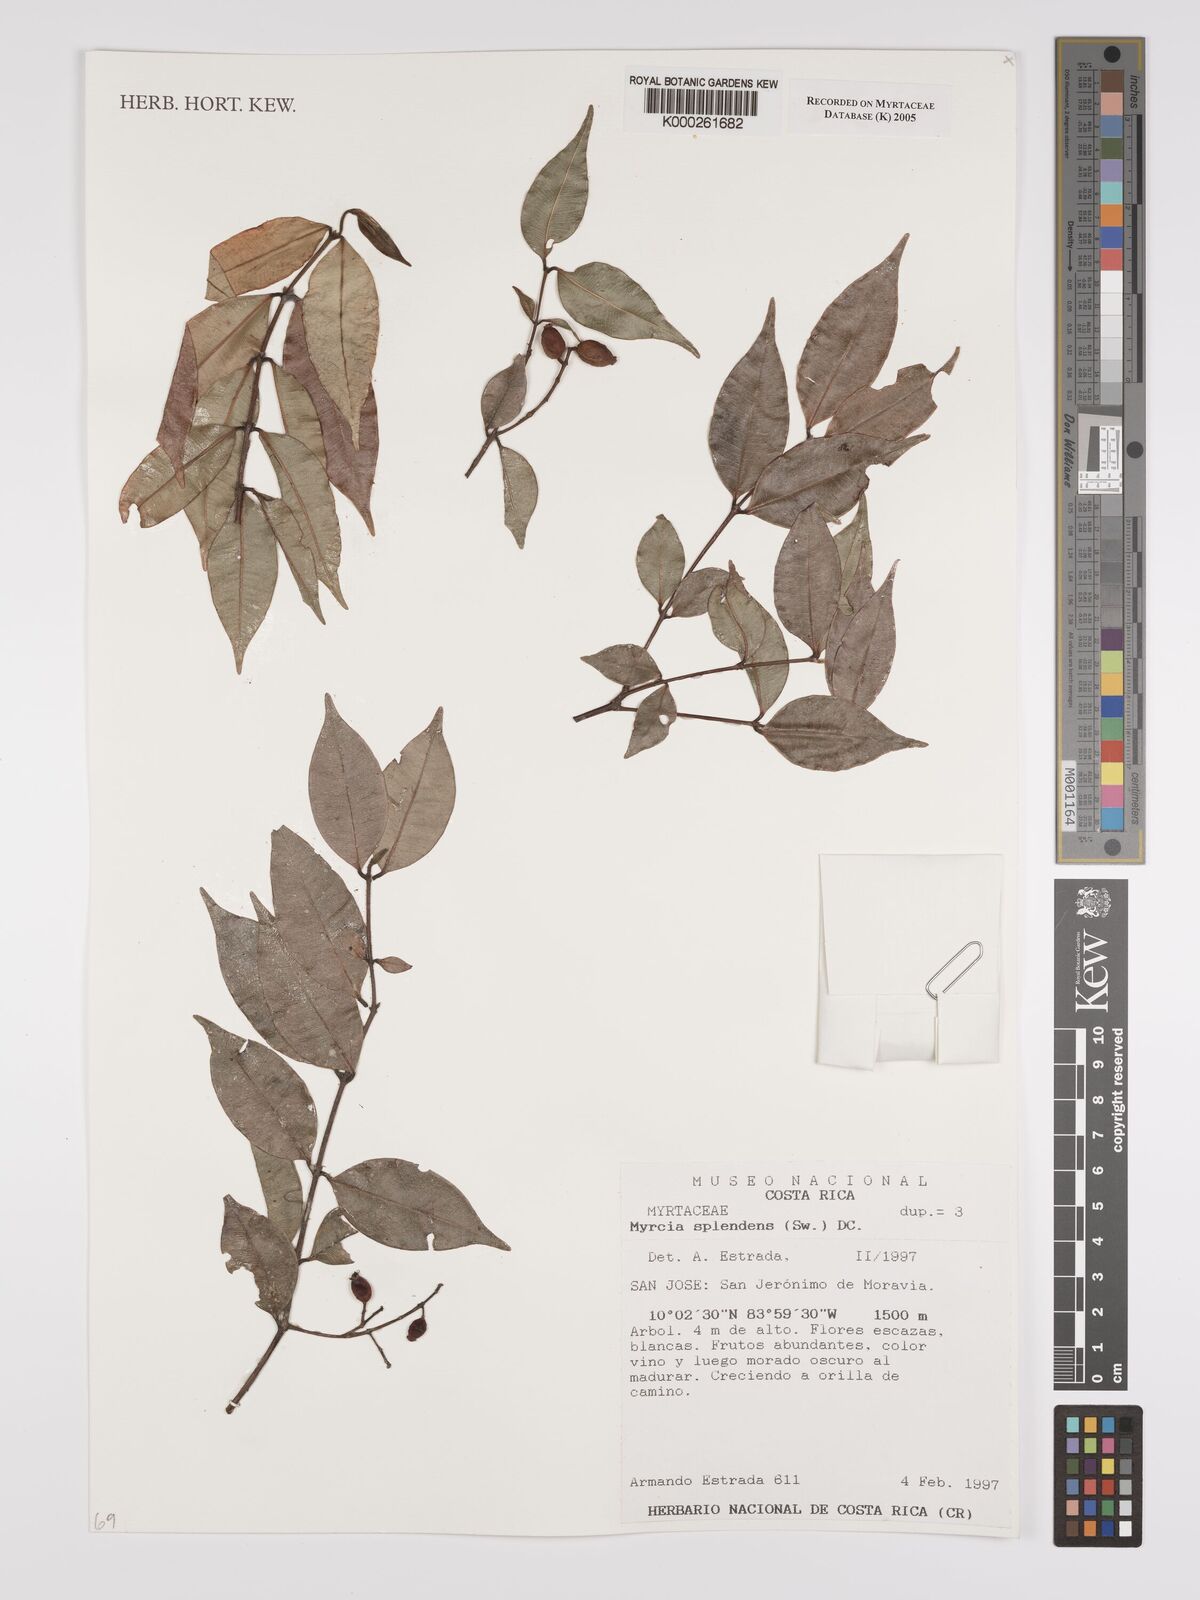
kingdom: Plantae
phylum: Tracheophyta
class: Magnoliopsida
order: Myrtales
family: Myrtaceae
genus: Myrcia
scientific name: Myrcia splendens
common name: Surinam cherry
